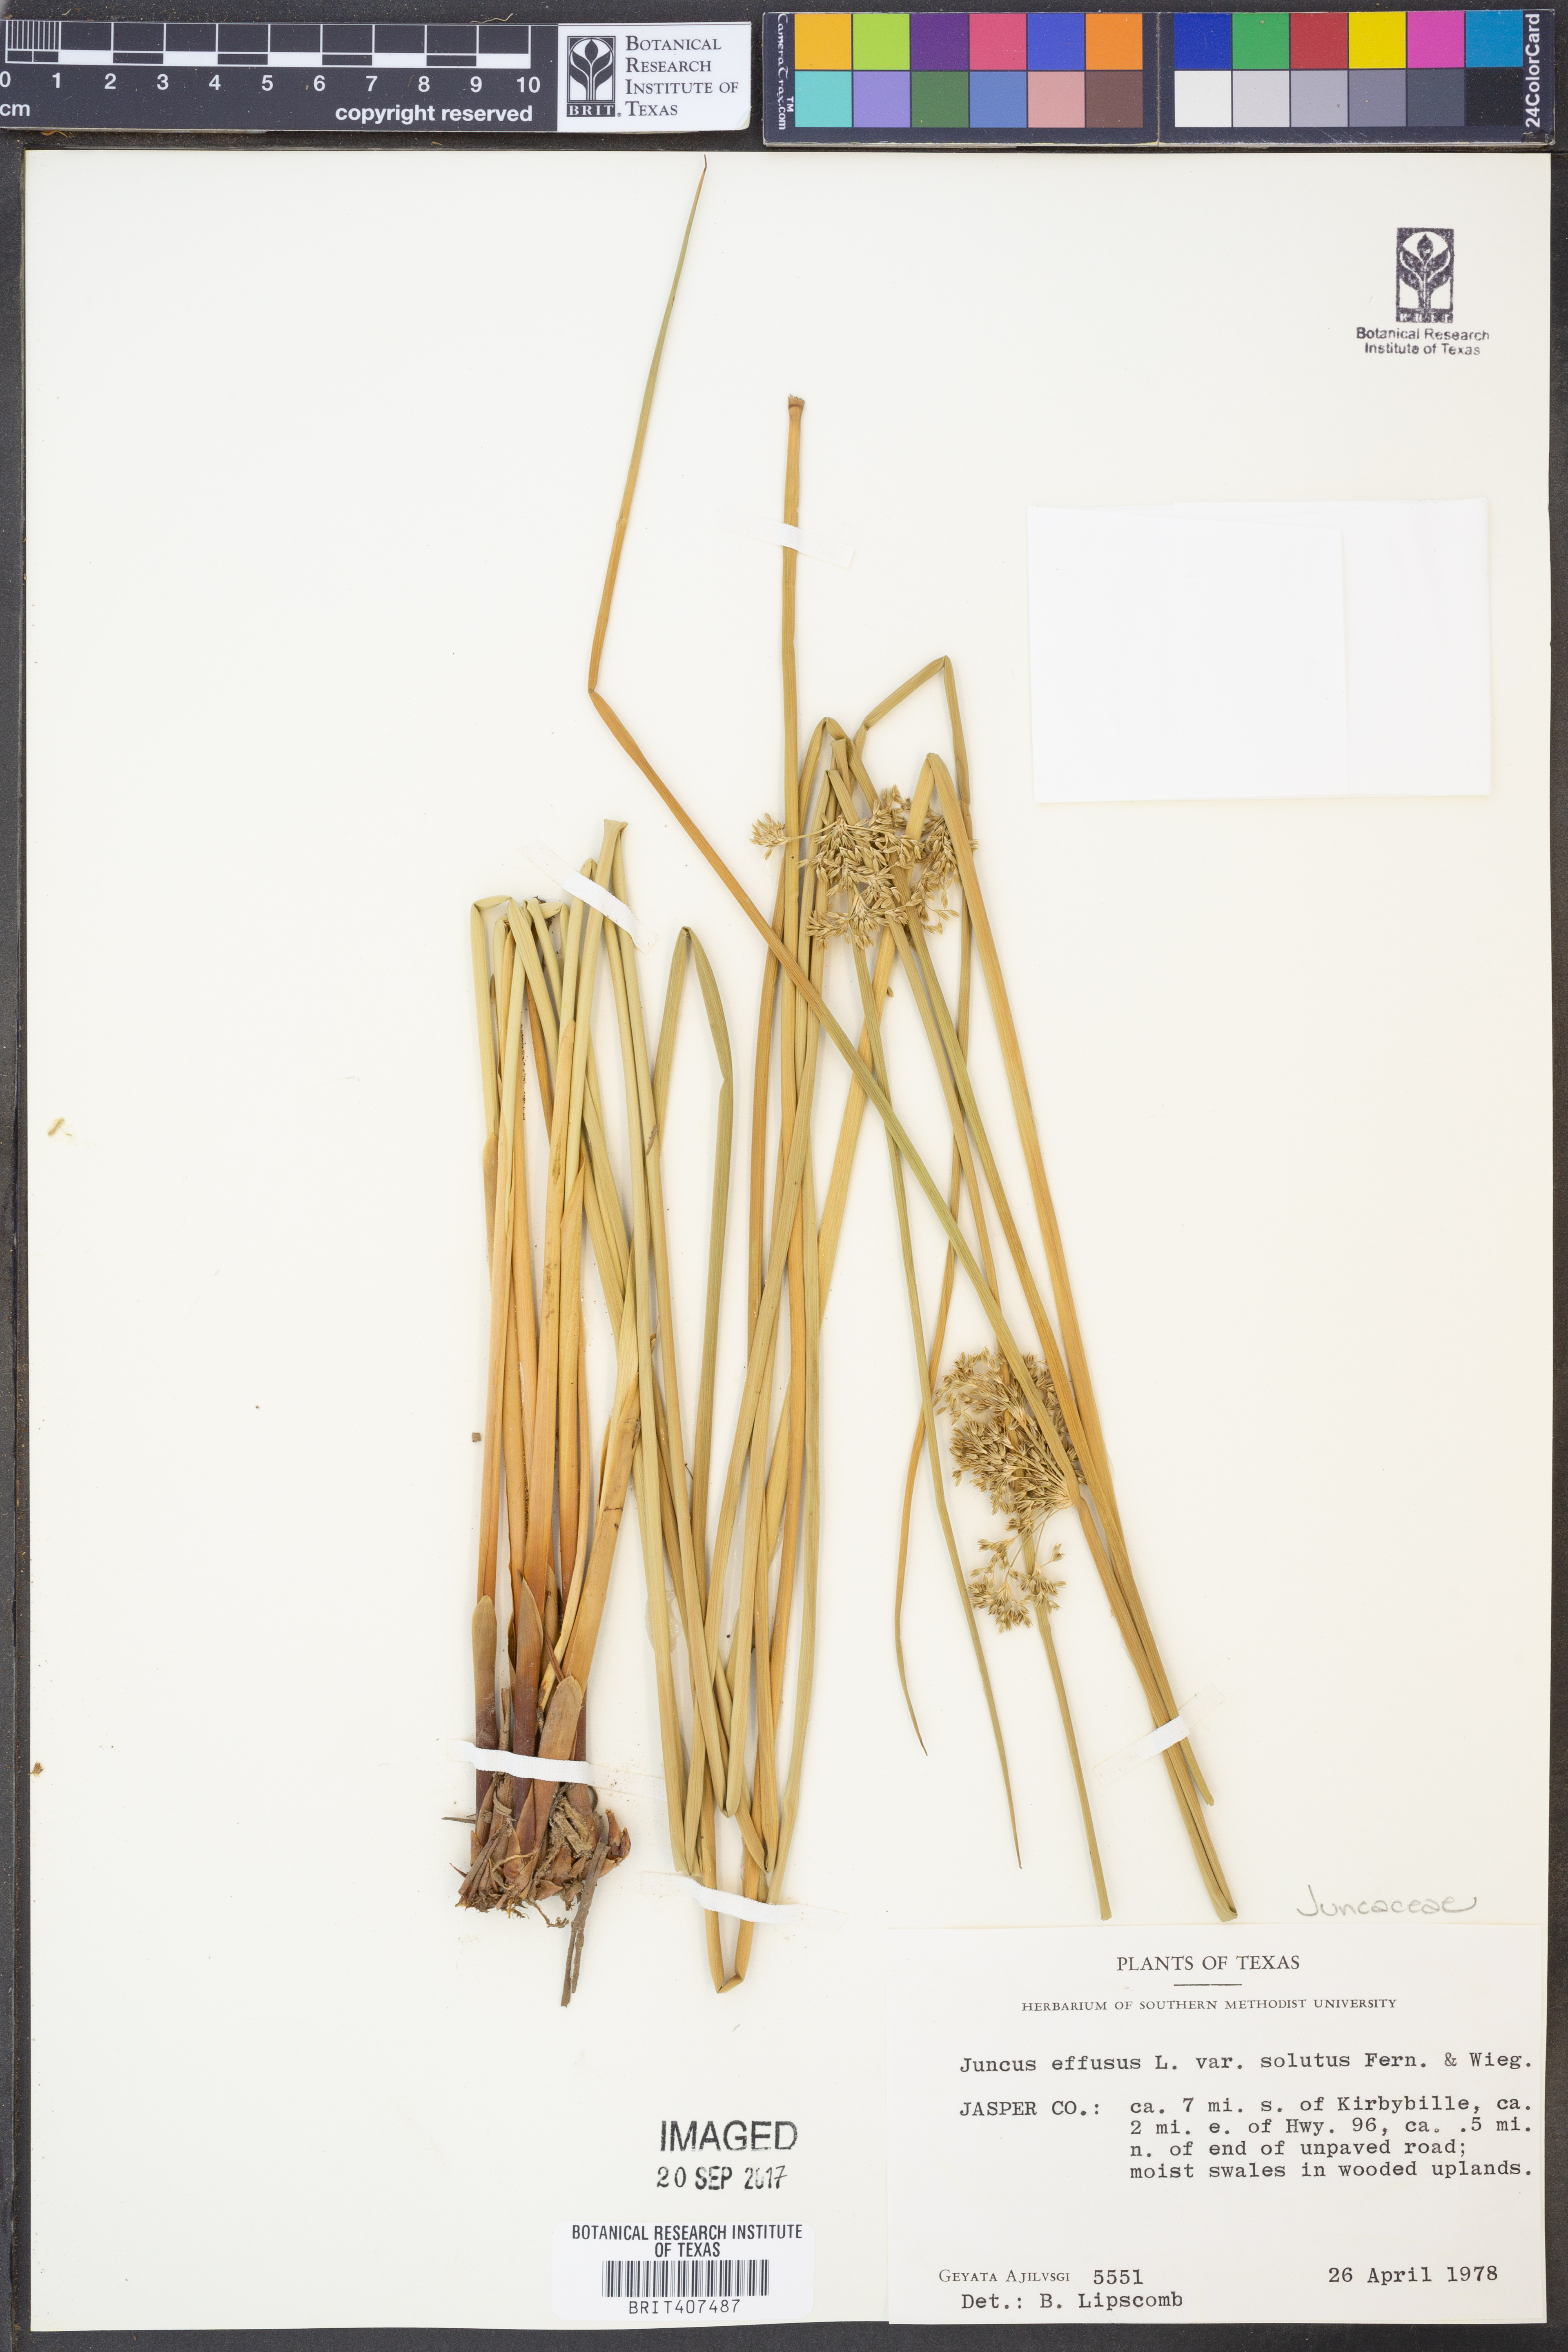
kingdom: Plantae
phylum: Tracheophyta
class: Liliopsida
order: Poales
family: Juncaceae
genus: Juncus
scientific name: Juncus effusus
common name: Soft rush
